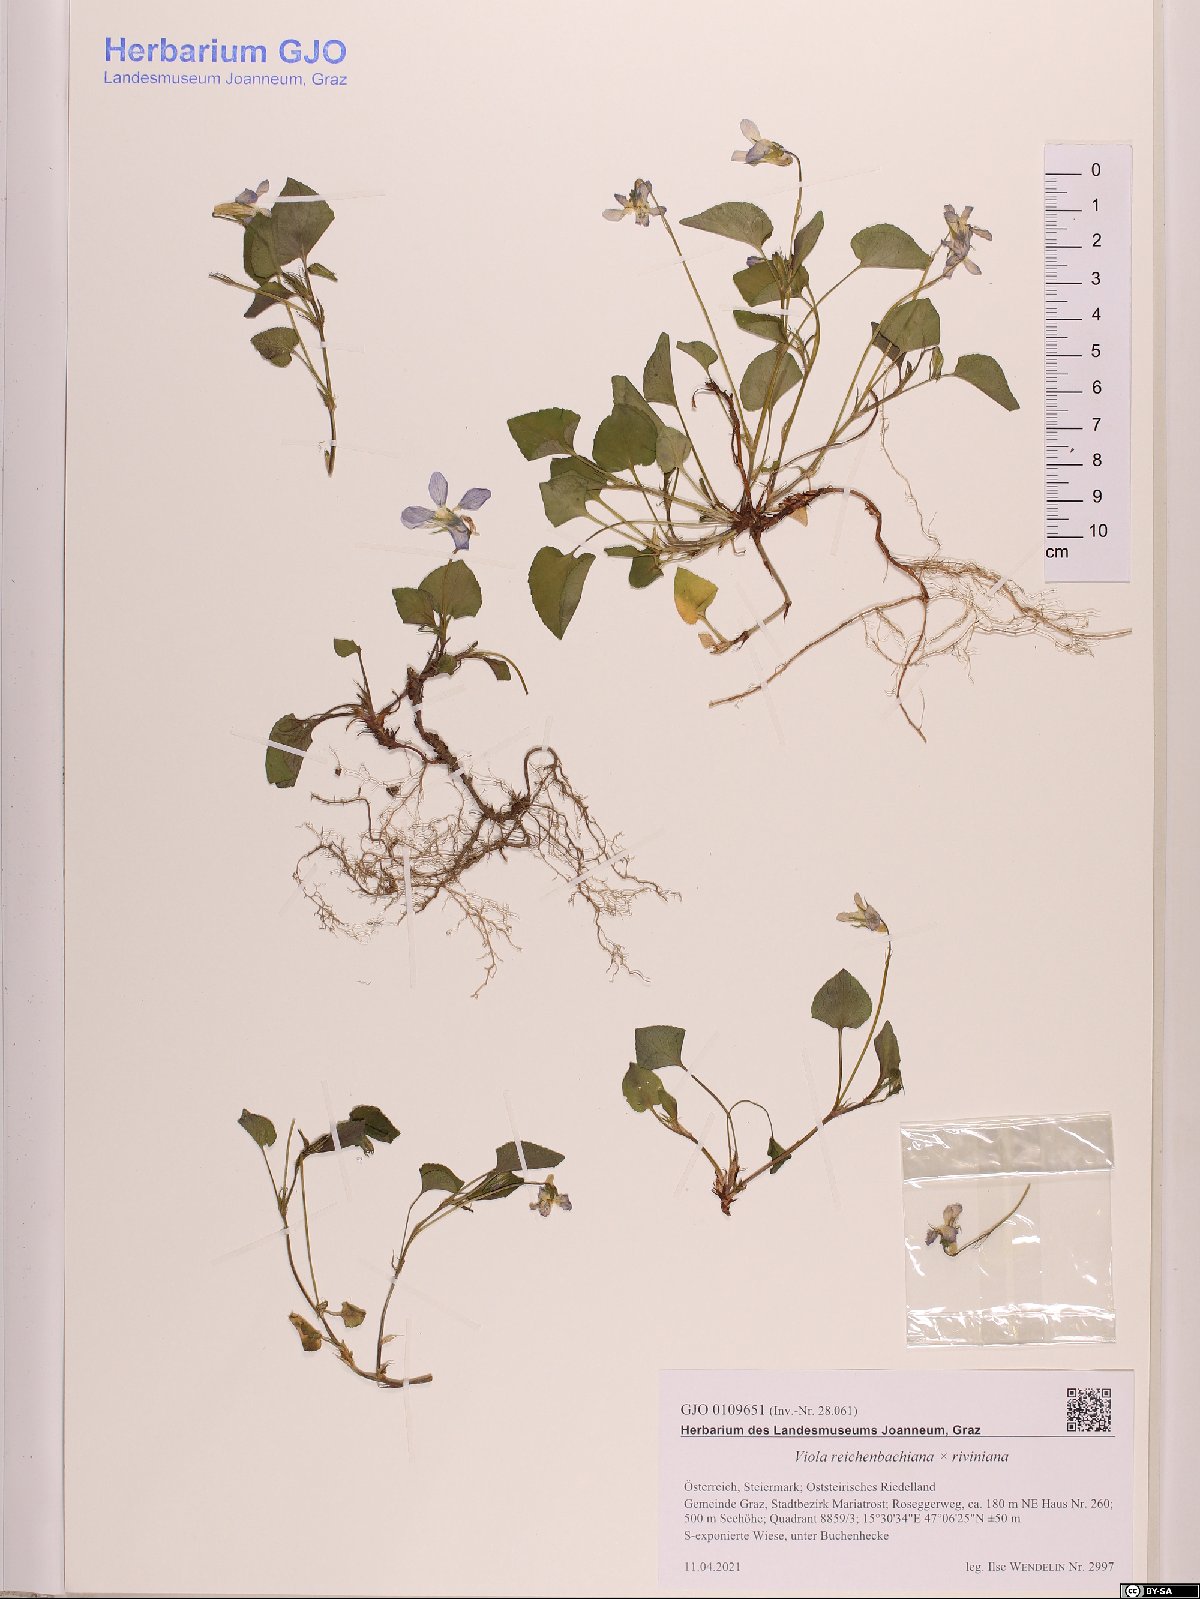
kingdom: Plantae
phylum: Tracheophyta
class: Magnoliopsida
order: Malpighiales
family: Violaceae
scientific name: Violaceae
